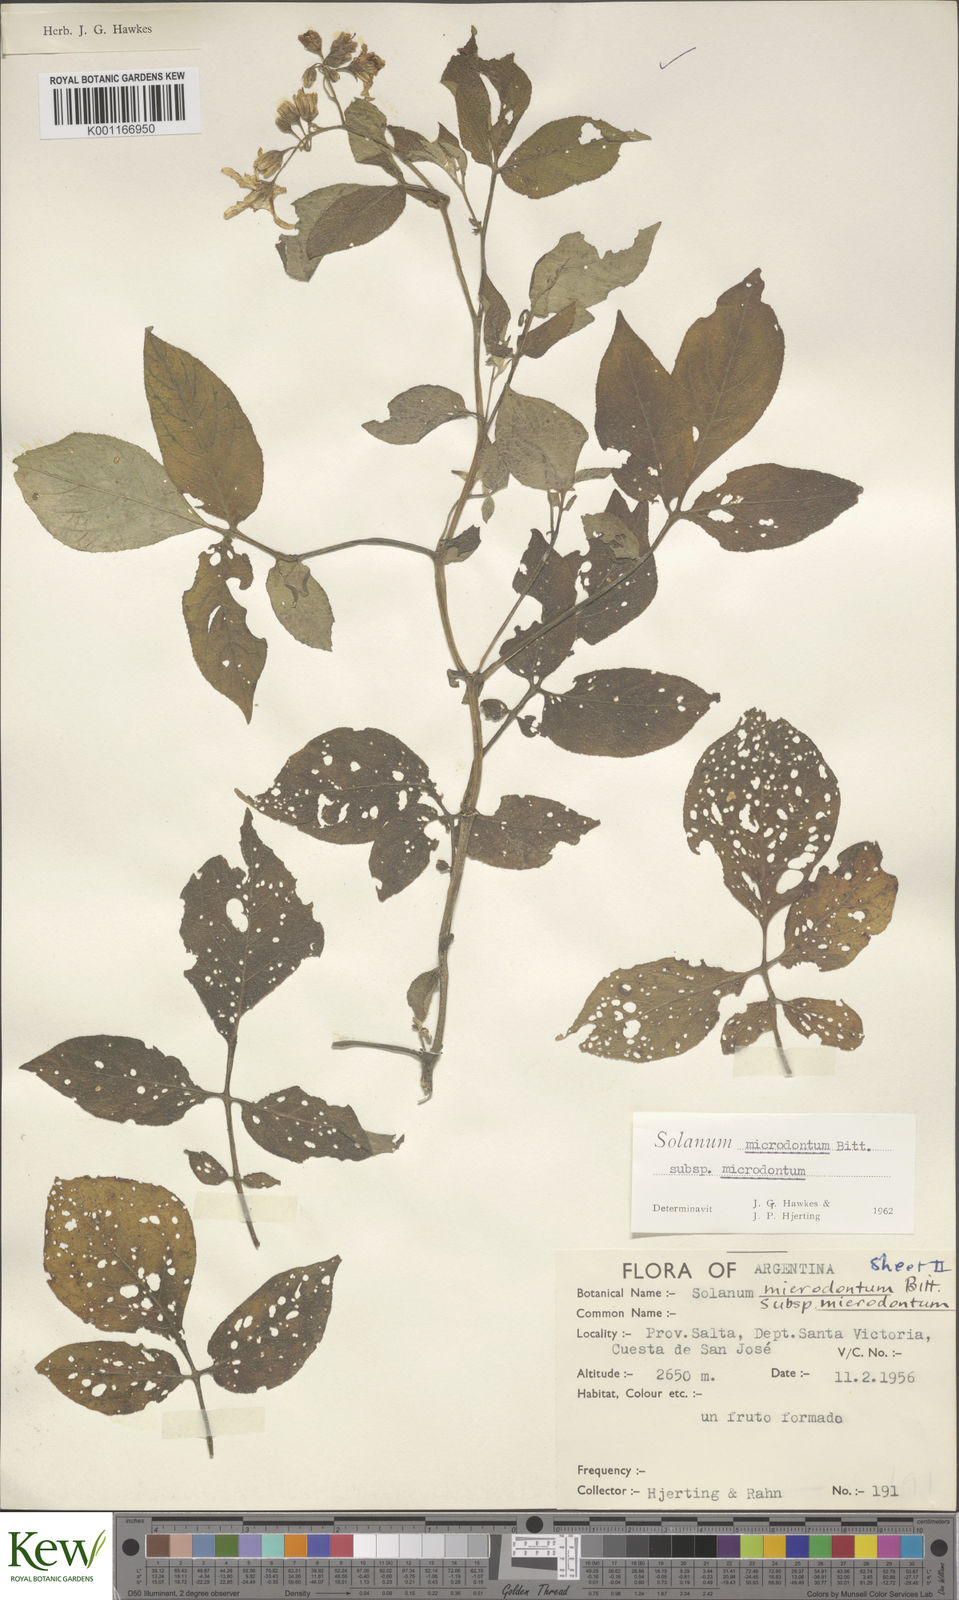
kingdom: Plantae
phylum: Tracheophyta
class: Magnoliopsida
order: Solanales
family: Solanaceae
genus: Solanum
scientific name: Solanum microdontum
